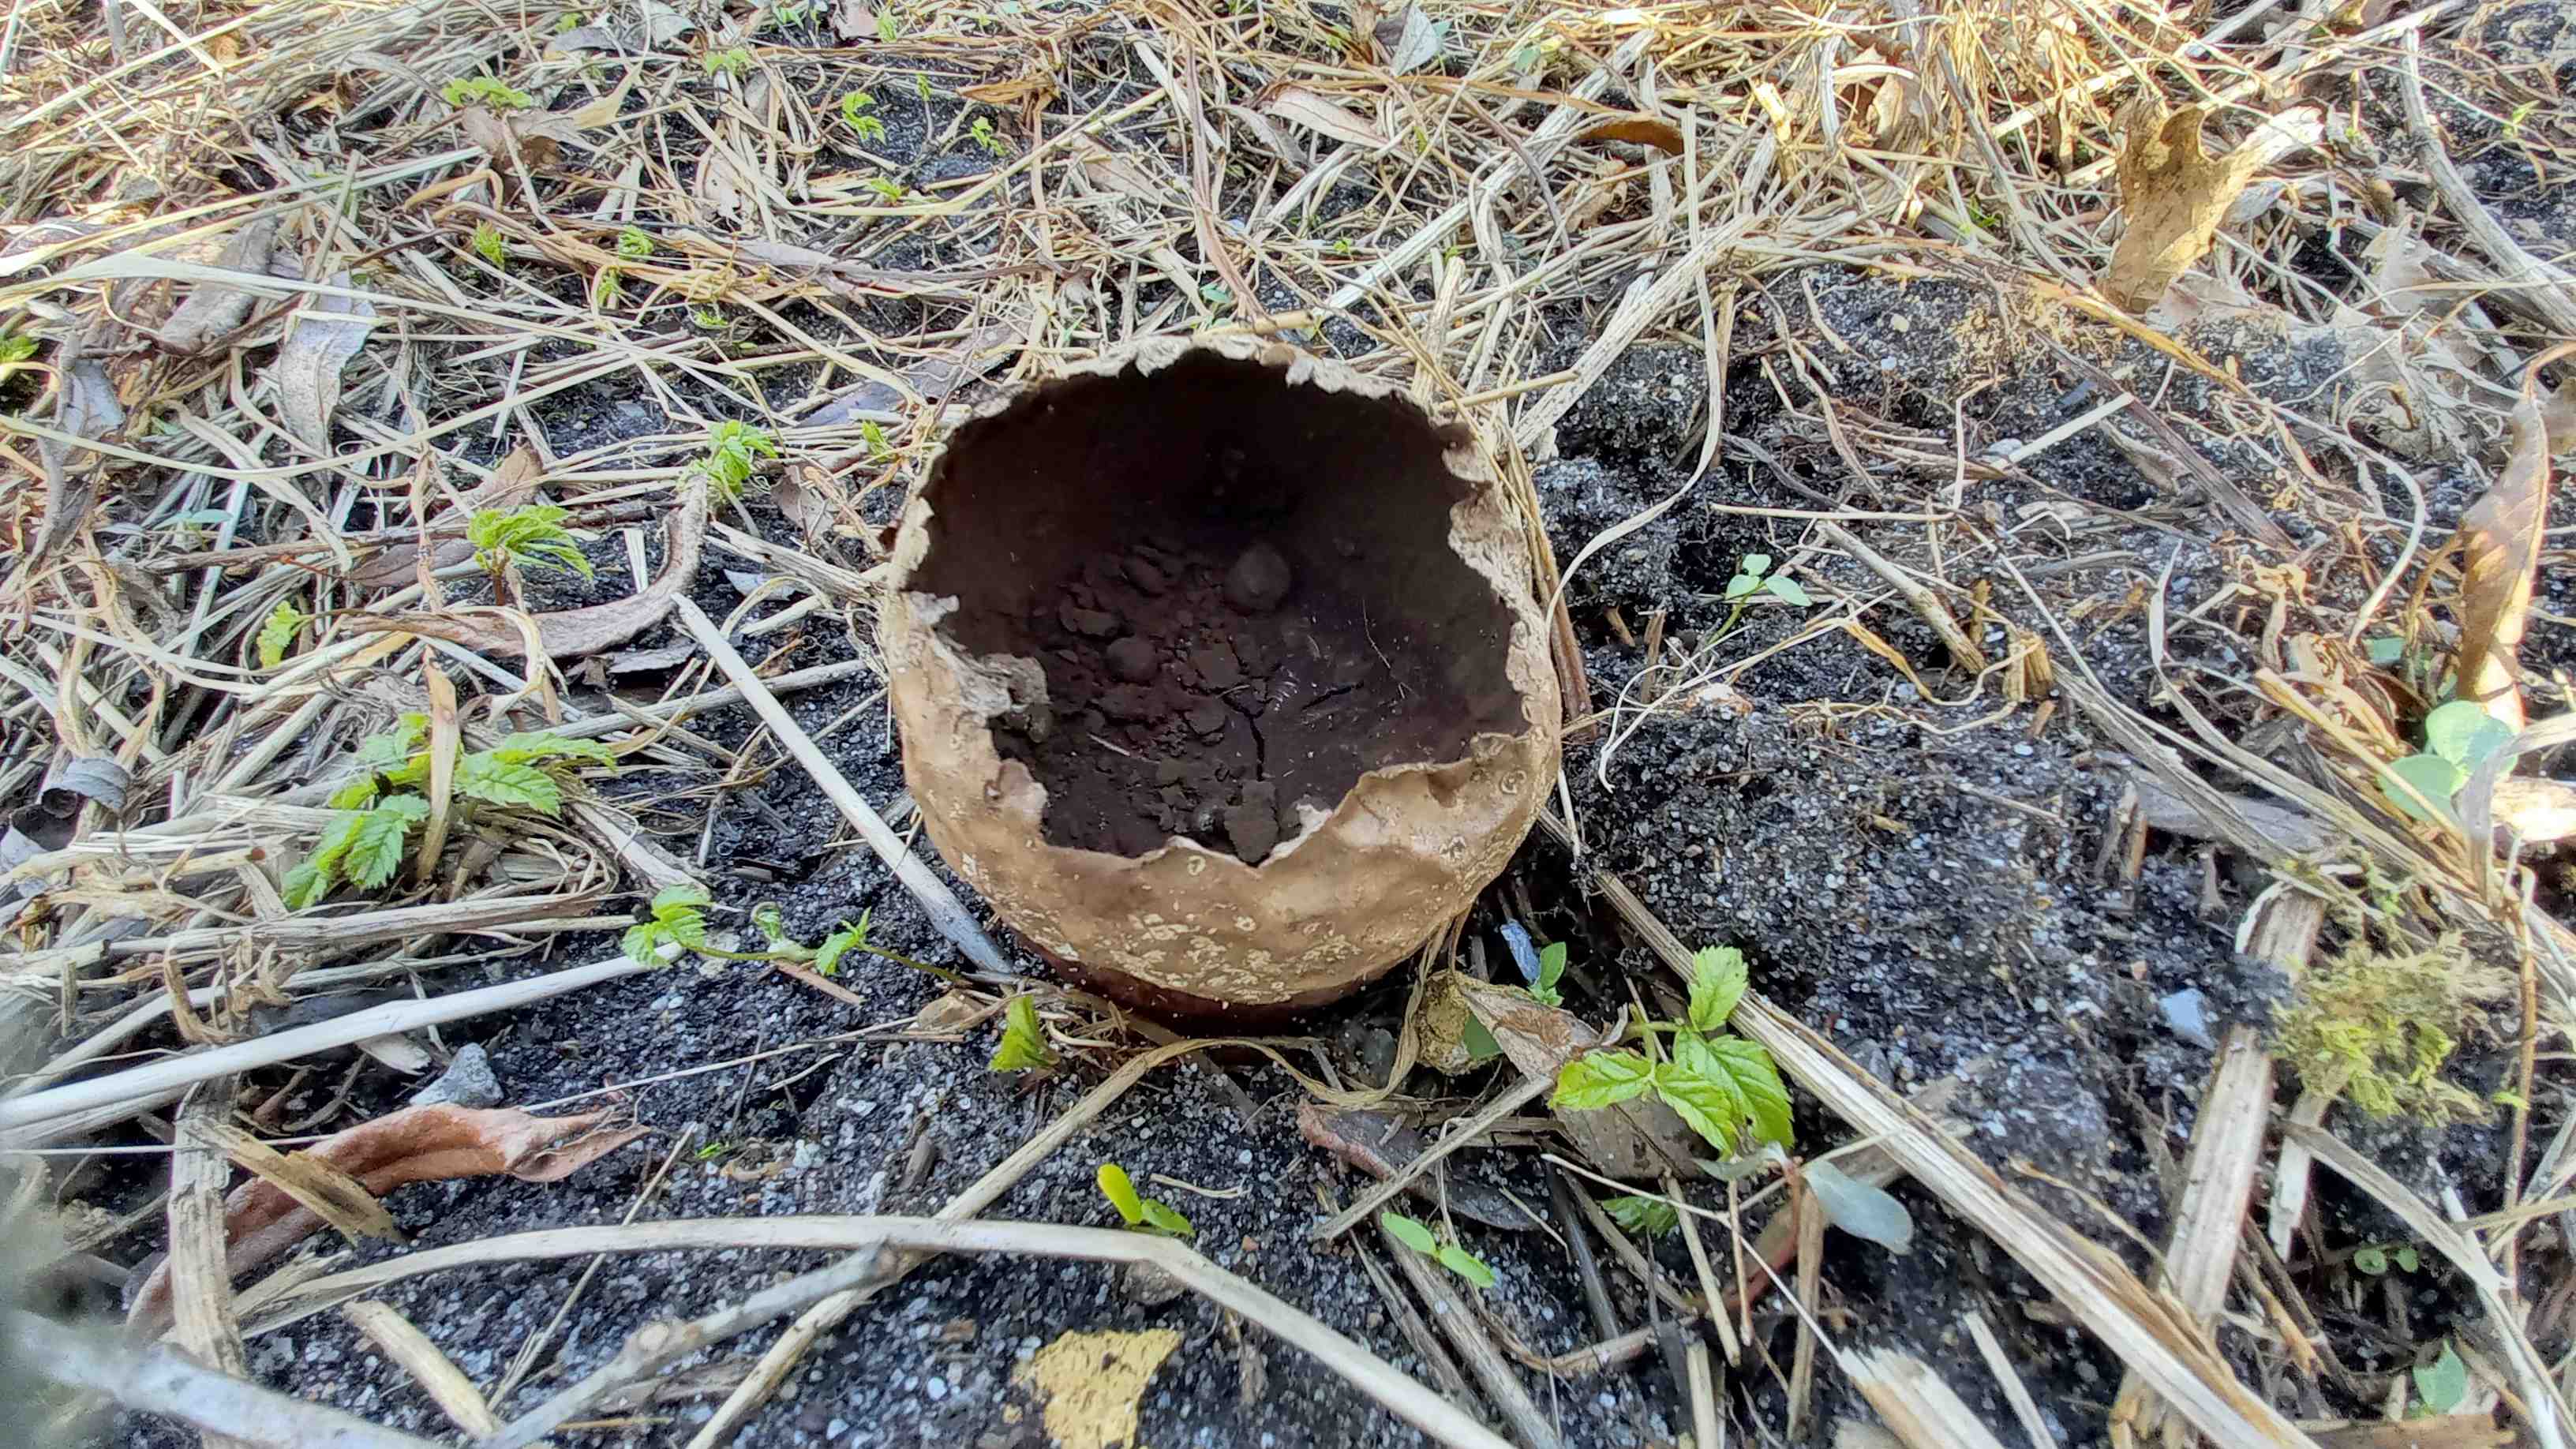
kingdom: Fungi
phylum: Basidiomycota
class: Agaricomycetes
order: Agaricales
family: Lycoperdaceae
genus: Bovistella
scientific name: Bovistella utriformis
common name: skællet støvbold
